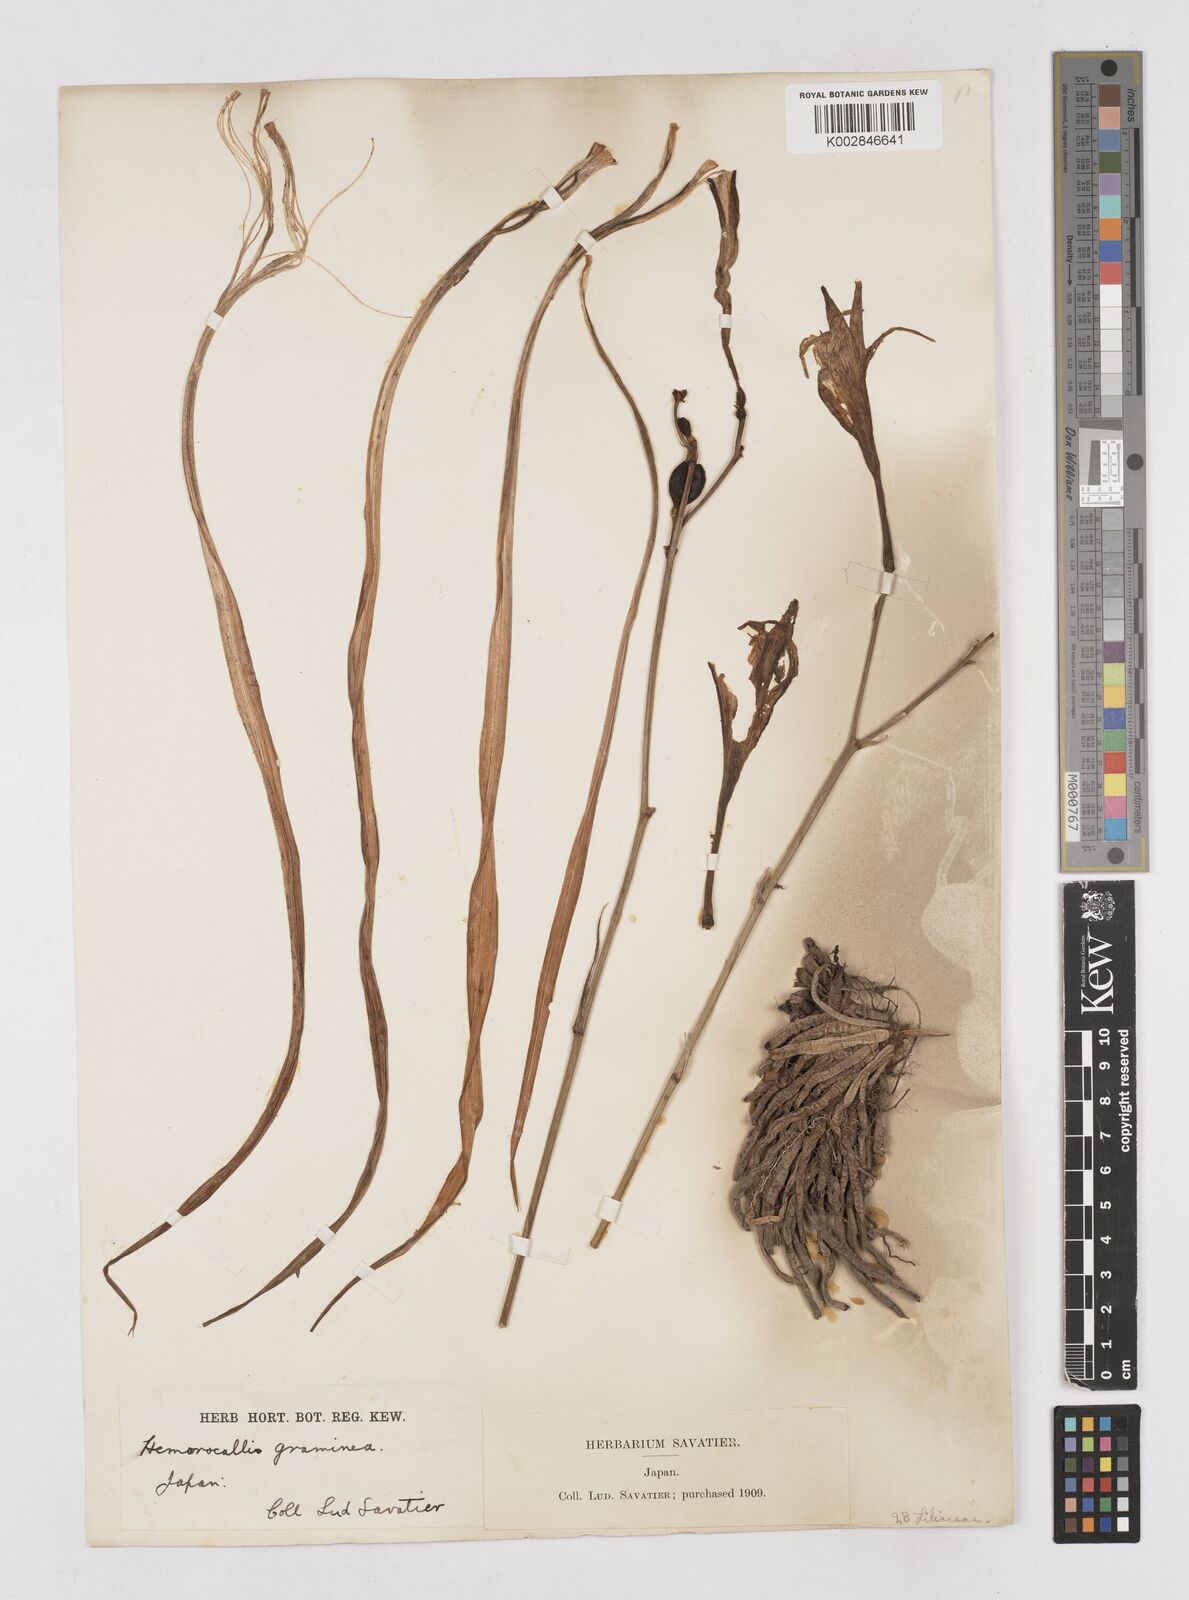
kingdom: Plantae
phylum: Tracheophyta
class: Liliopsida
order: Asparagales
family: Asphodelaceae
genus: Hemerocallis
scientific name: Hemerocallis minor
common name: Small daylily
